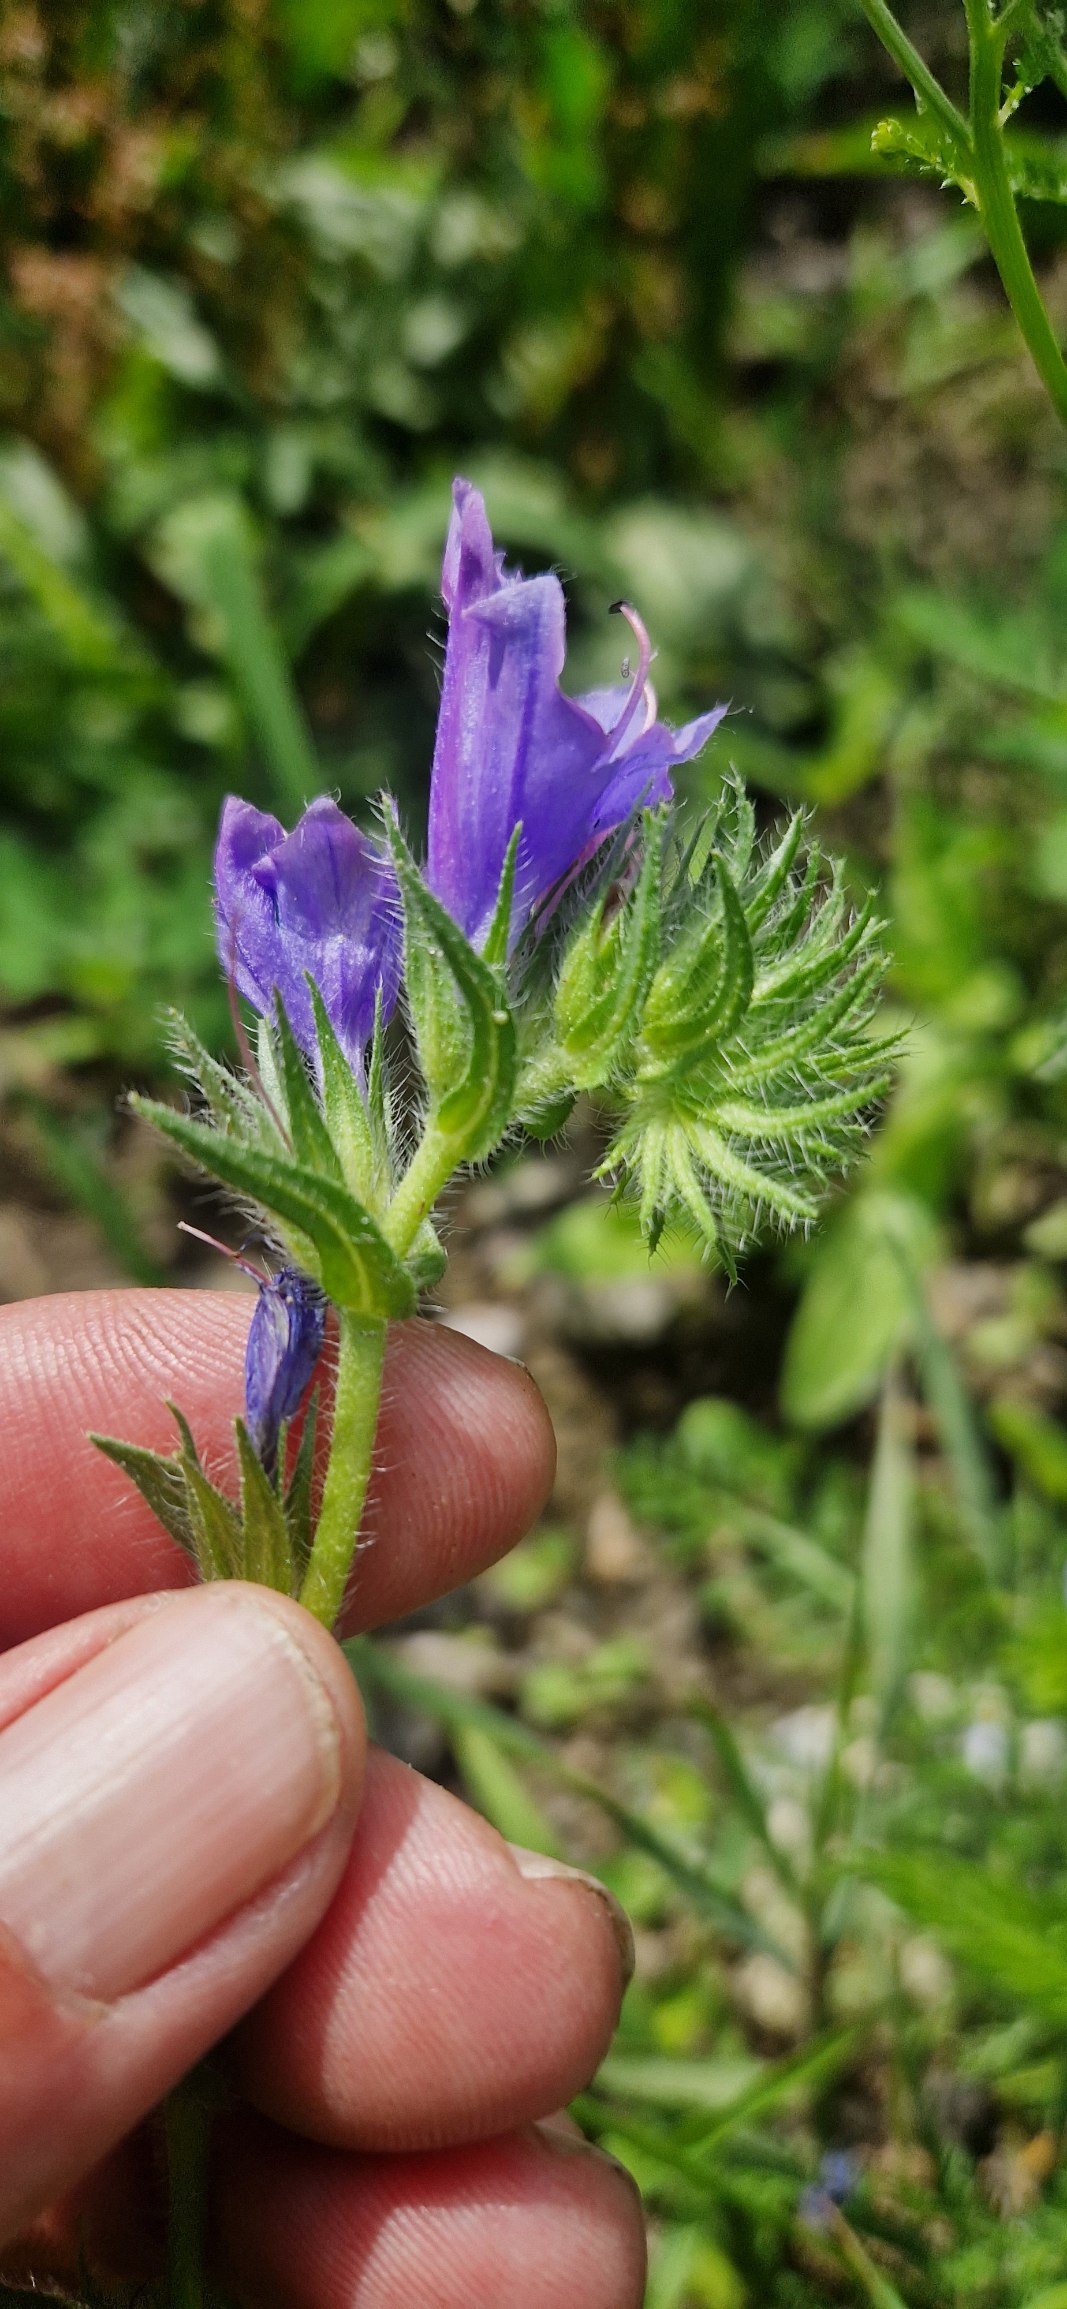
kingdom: Plantae
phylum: Tracheophyta
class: Magnoliopsida
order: Boraginales
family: Boraginaceae
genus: Echium
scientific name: Echium plantagineum
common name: Vejbred-slangehoved
